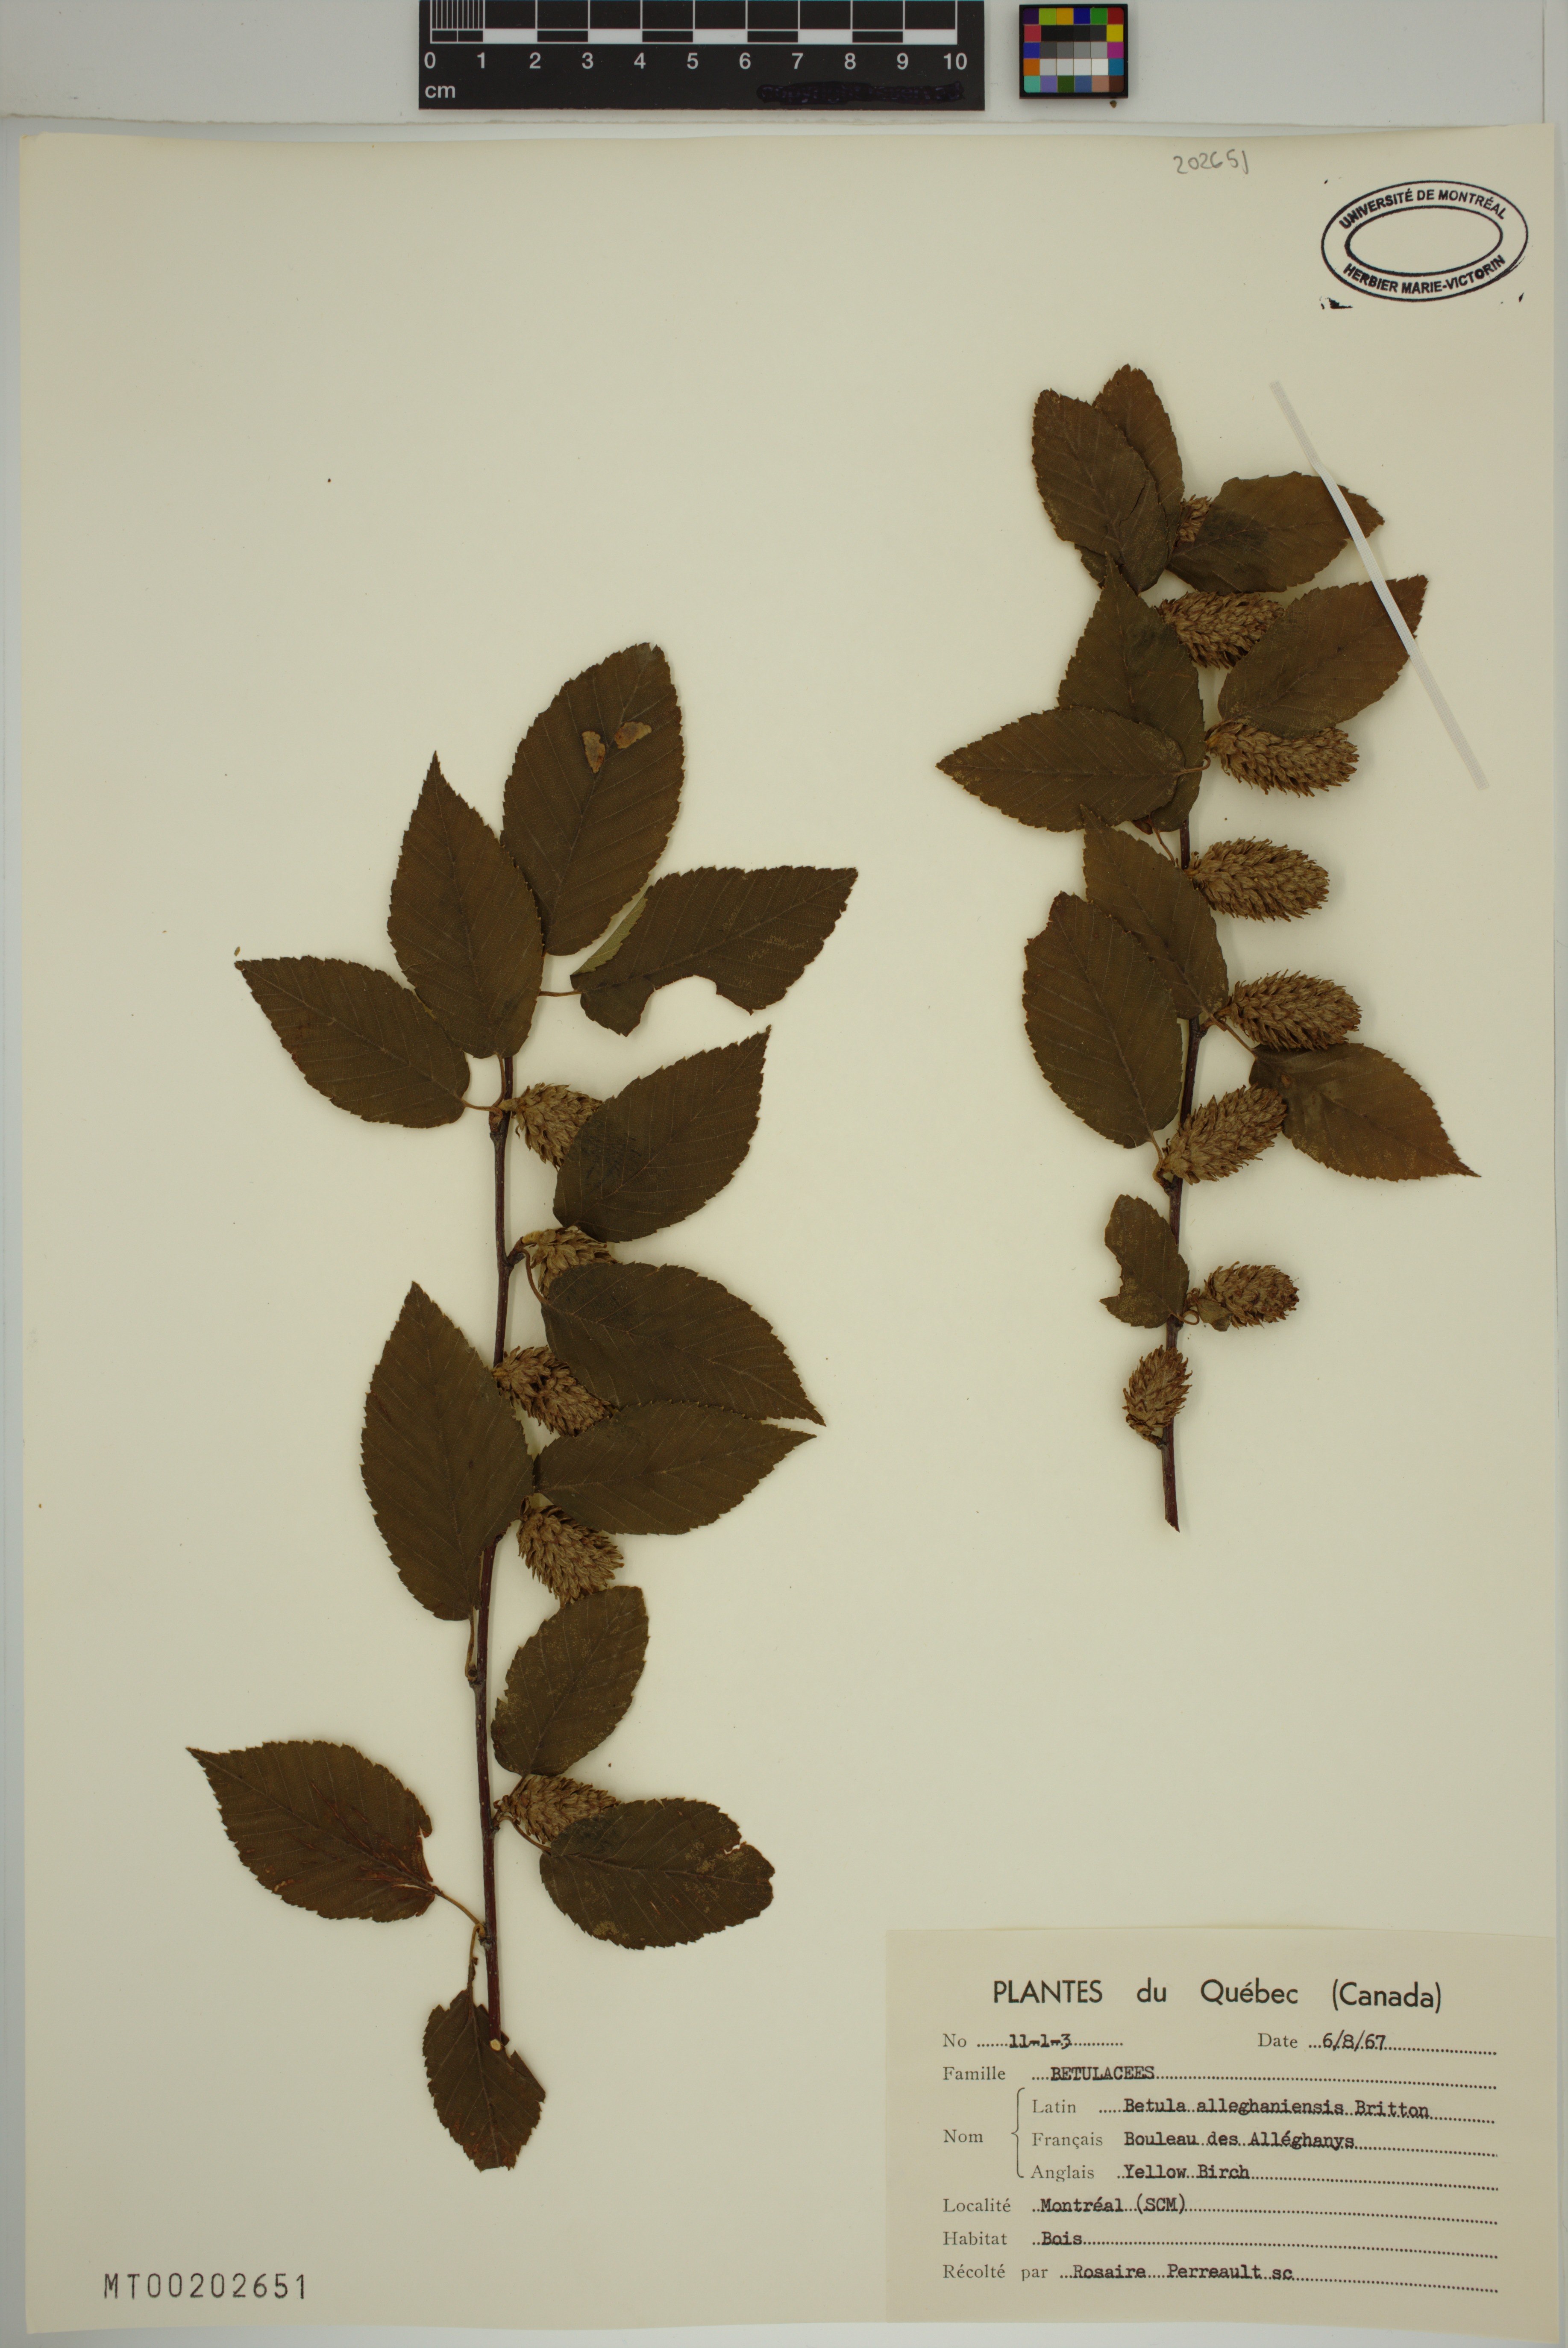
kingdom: Plantae
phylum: Tracheophyta
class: Magnoliopsida
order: Fagales
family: Betulaceae
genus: Betula
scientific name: Betula alleghaniensis
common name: Yellow birch
